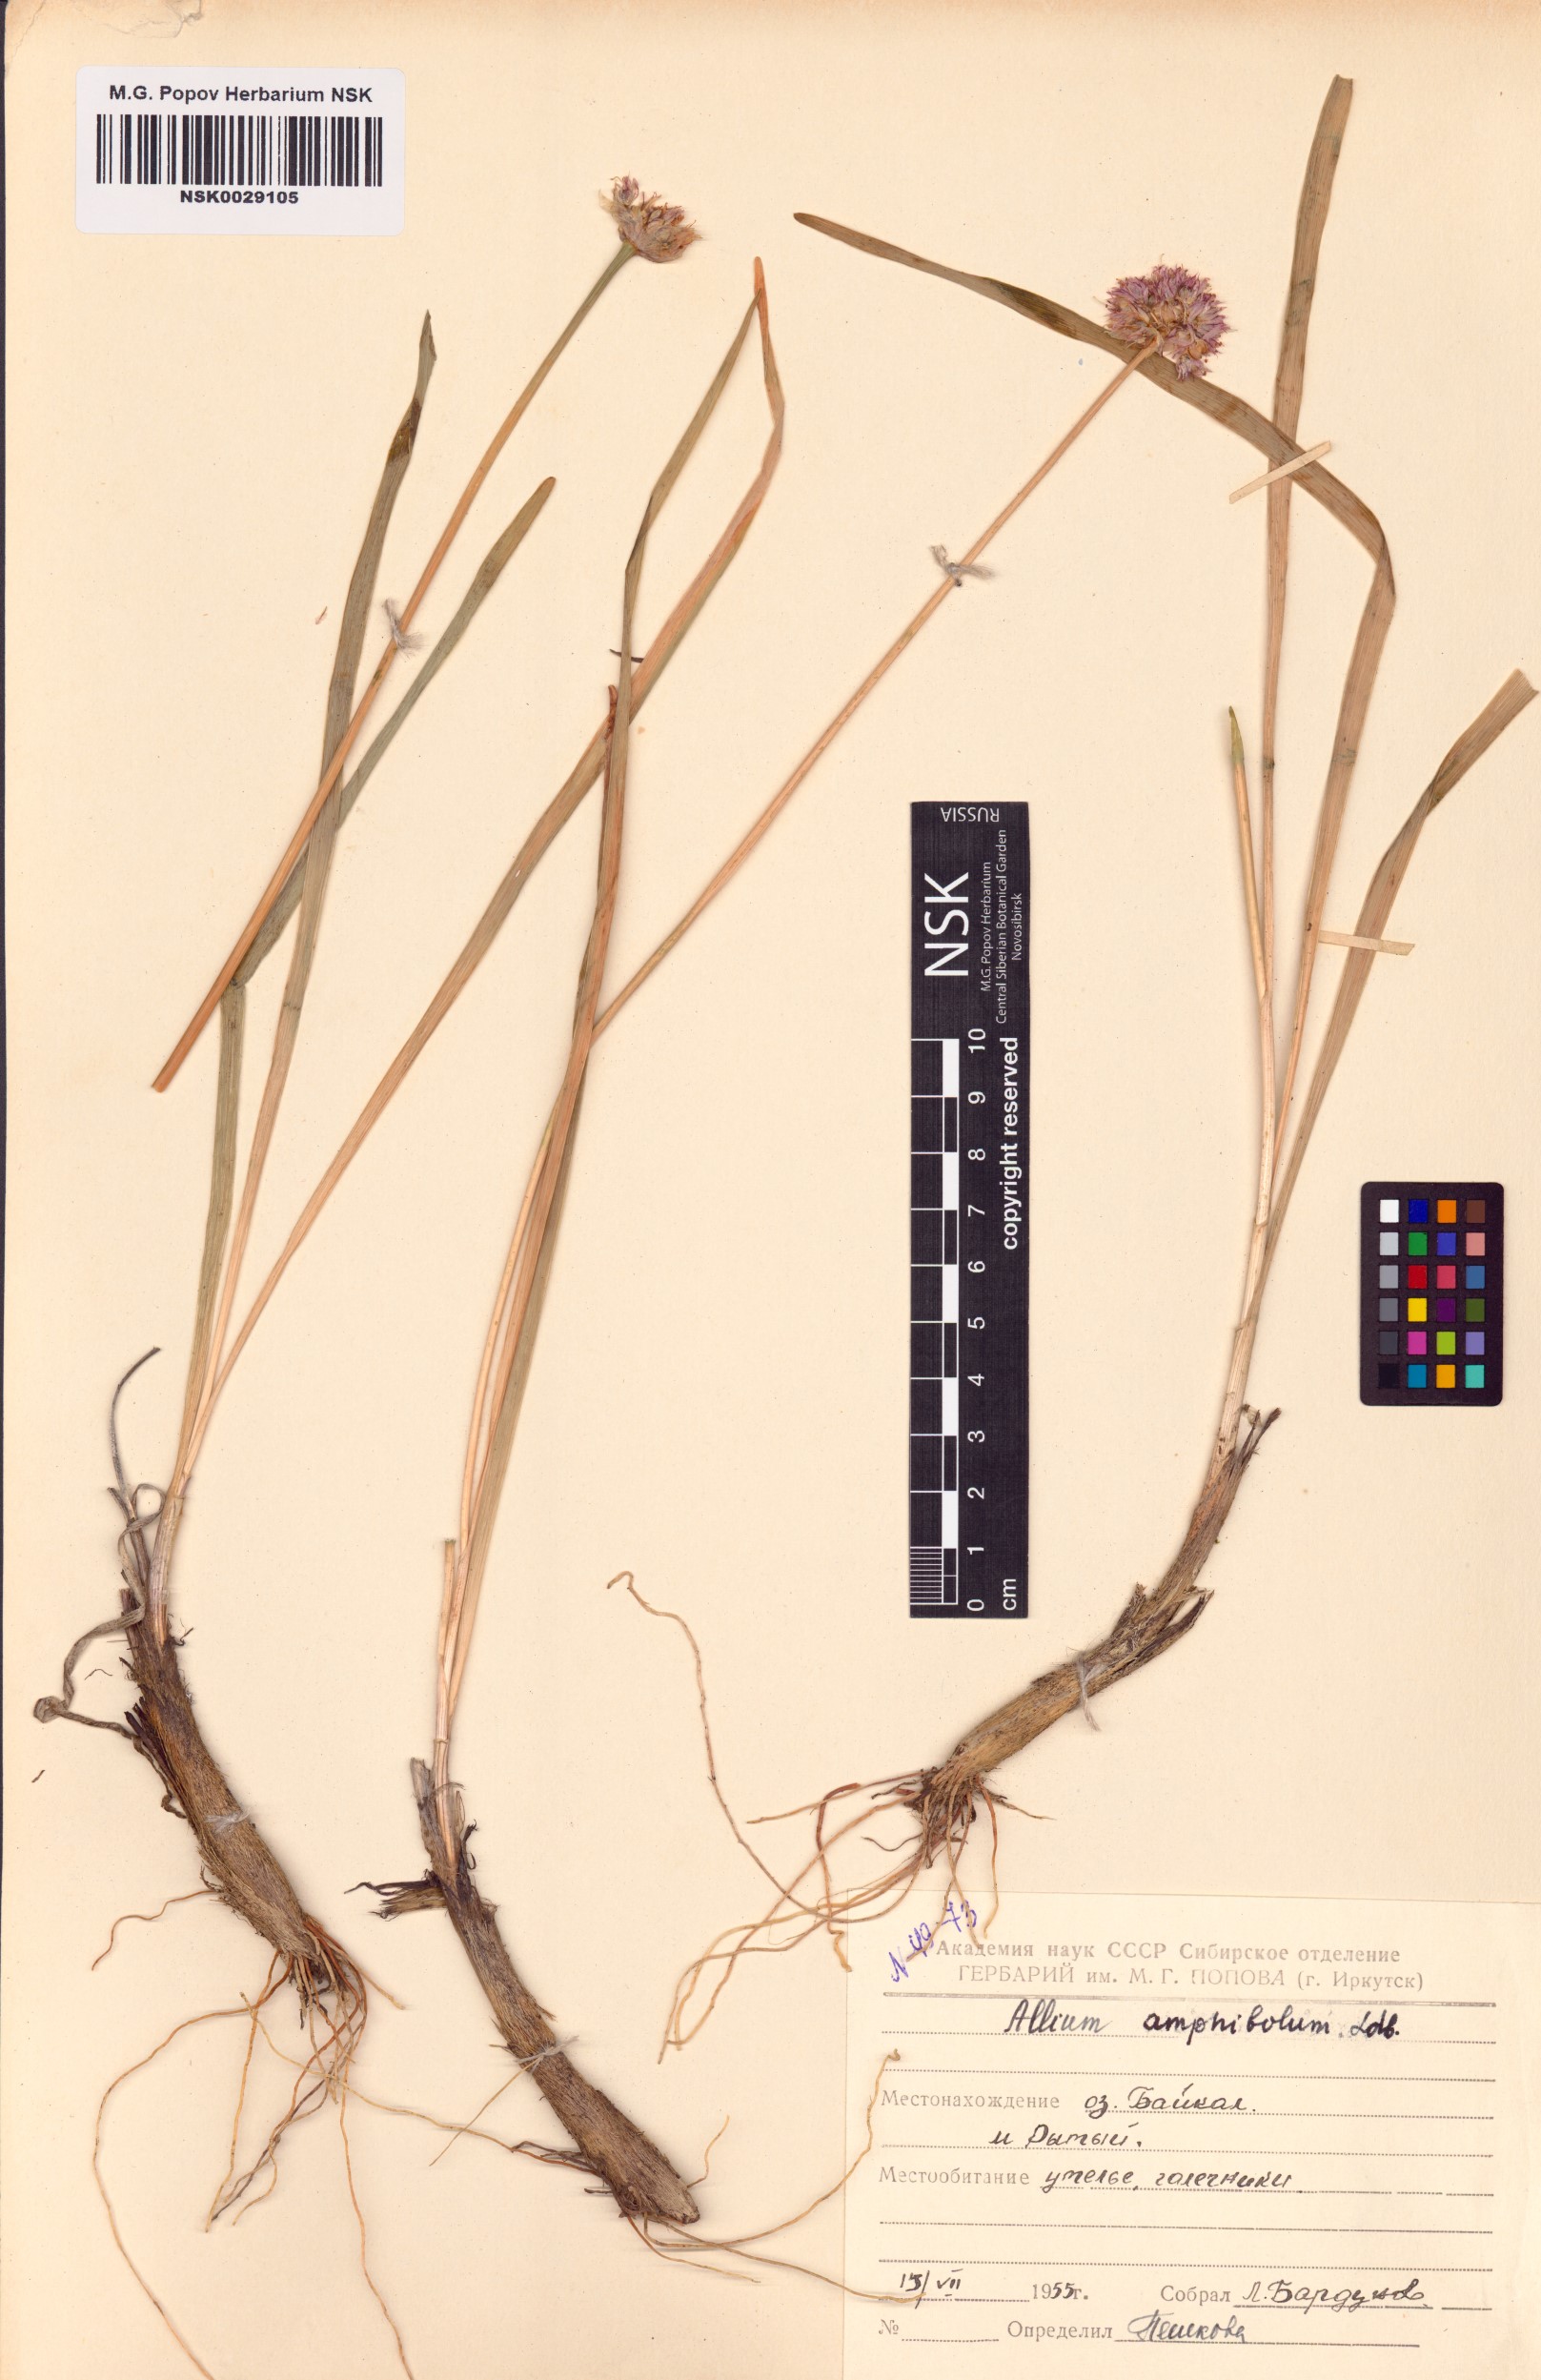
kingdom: Plantae
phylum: Tracheophyta
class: Liliopsida
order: Asparagales
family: Amaryllidaceae
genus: Allium
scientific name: Allium amphibolum
